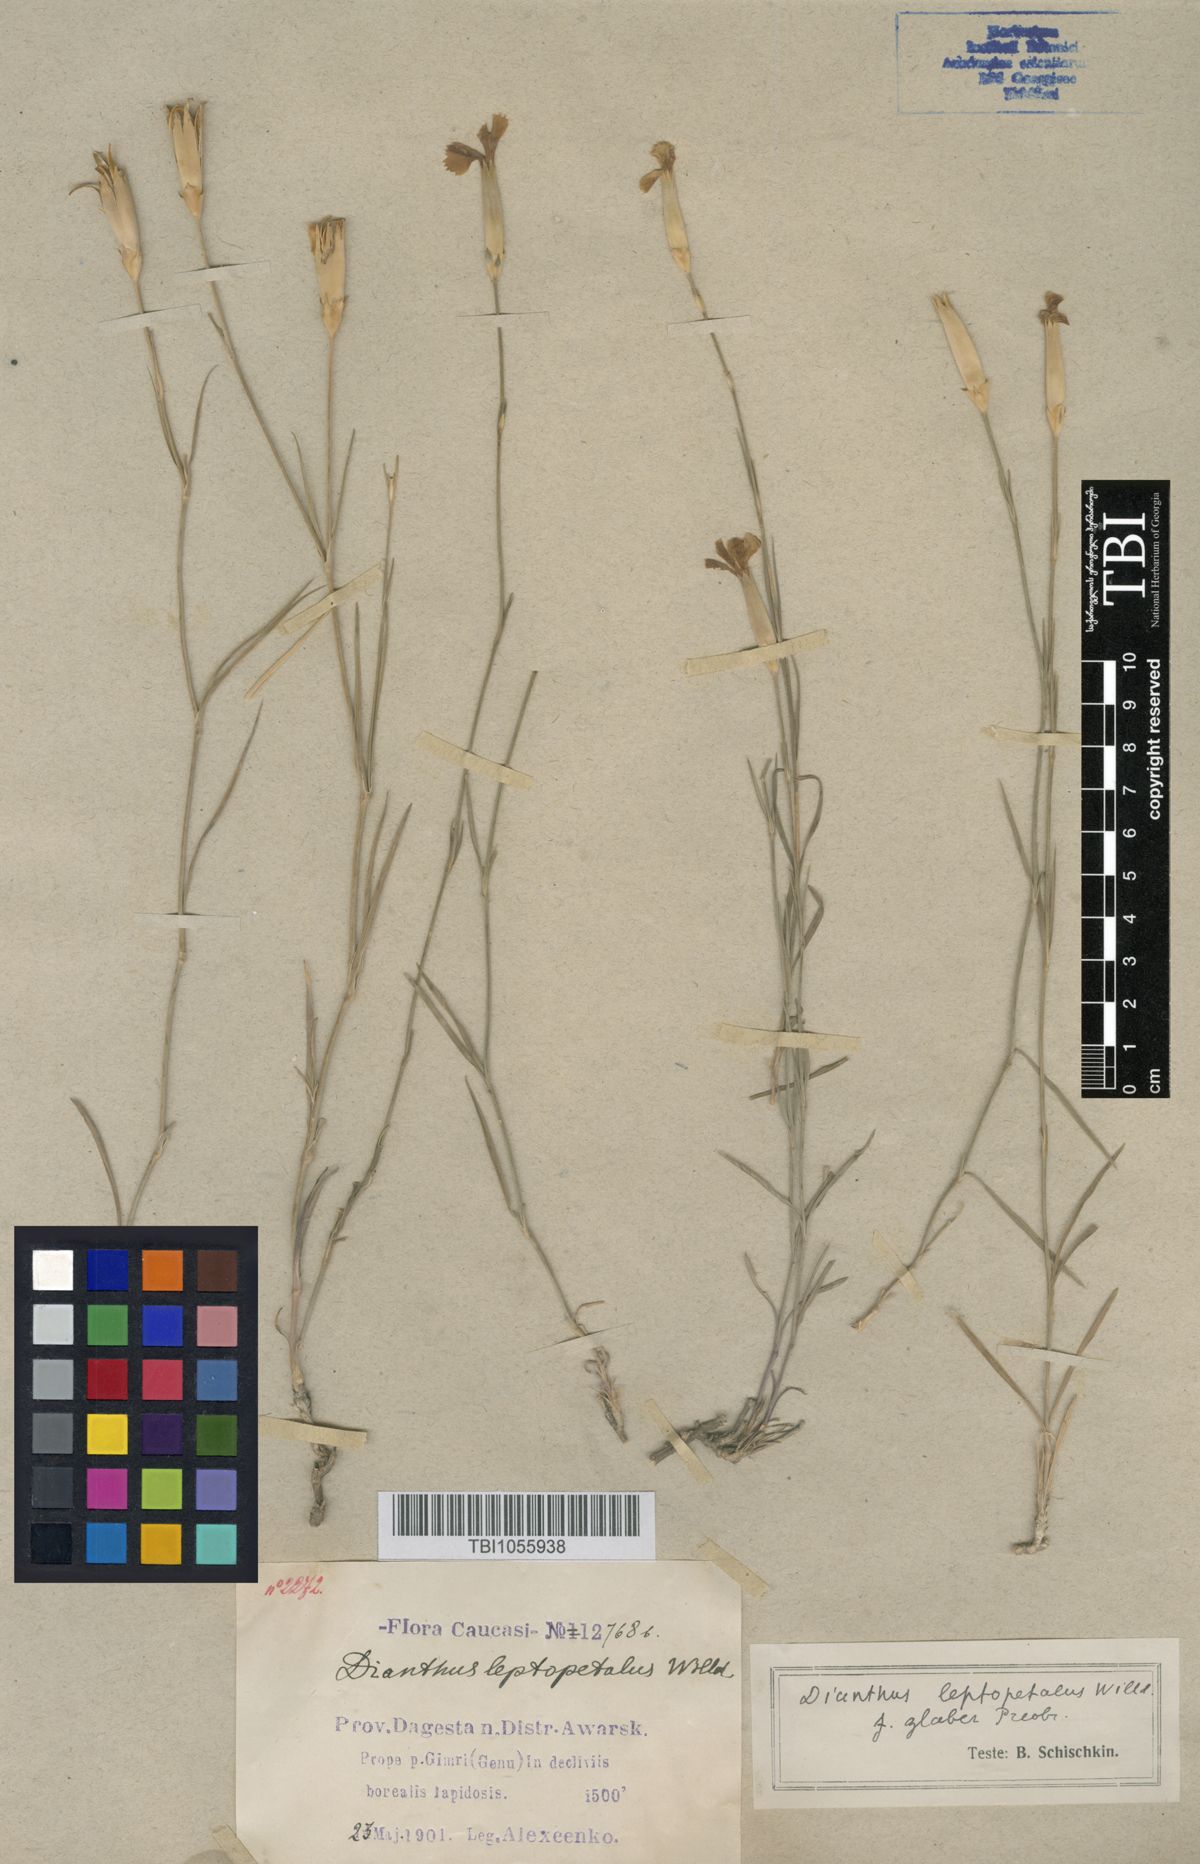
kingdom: Plantae
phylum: Tracheophyta
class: Magnoliopsida
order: Caryophyllales
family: Caryophyllaceae
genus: Dianthus
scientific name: Dianthus leptopetalus
